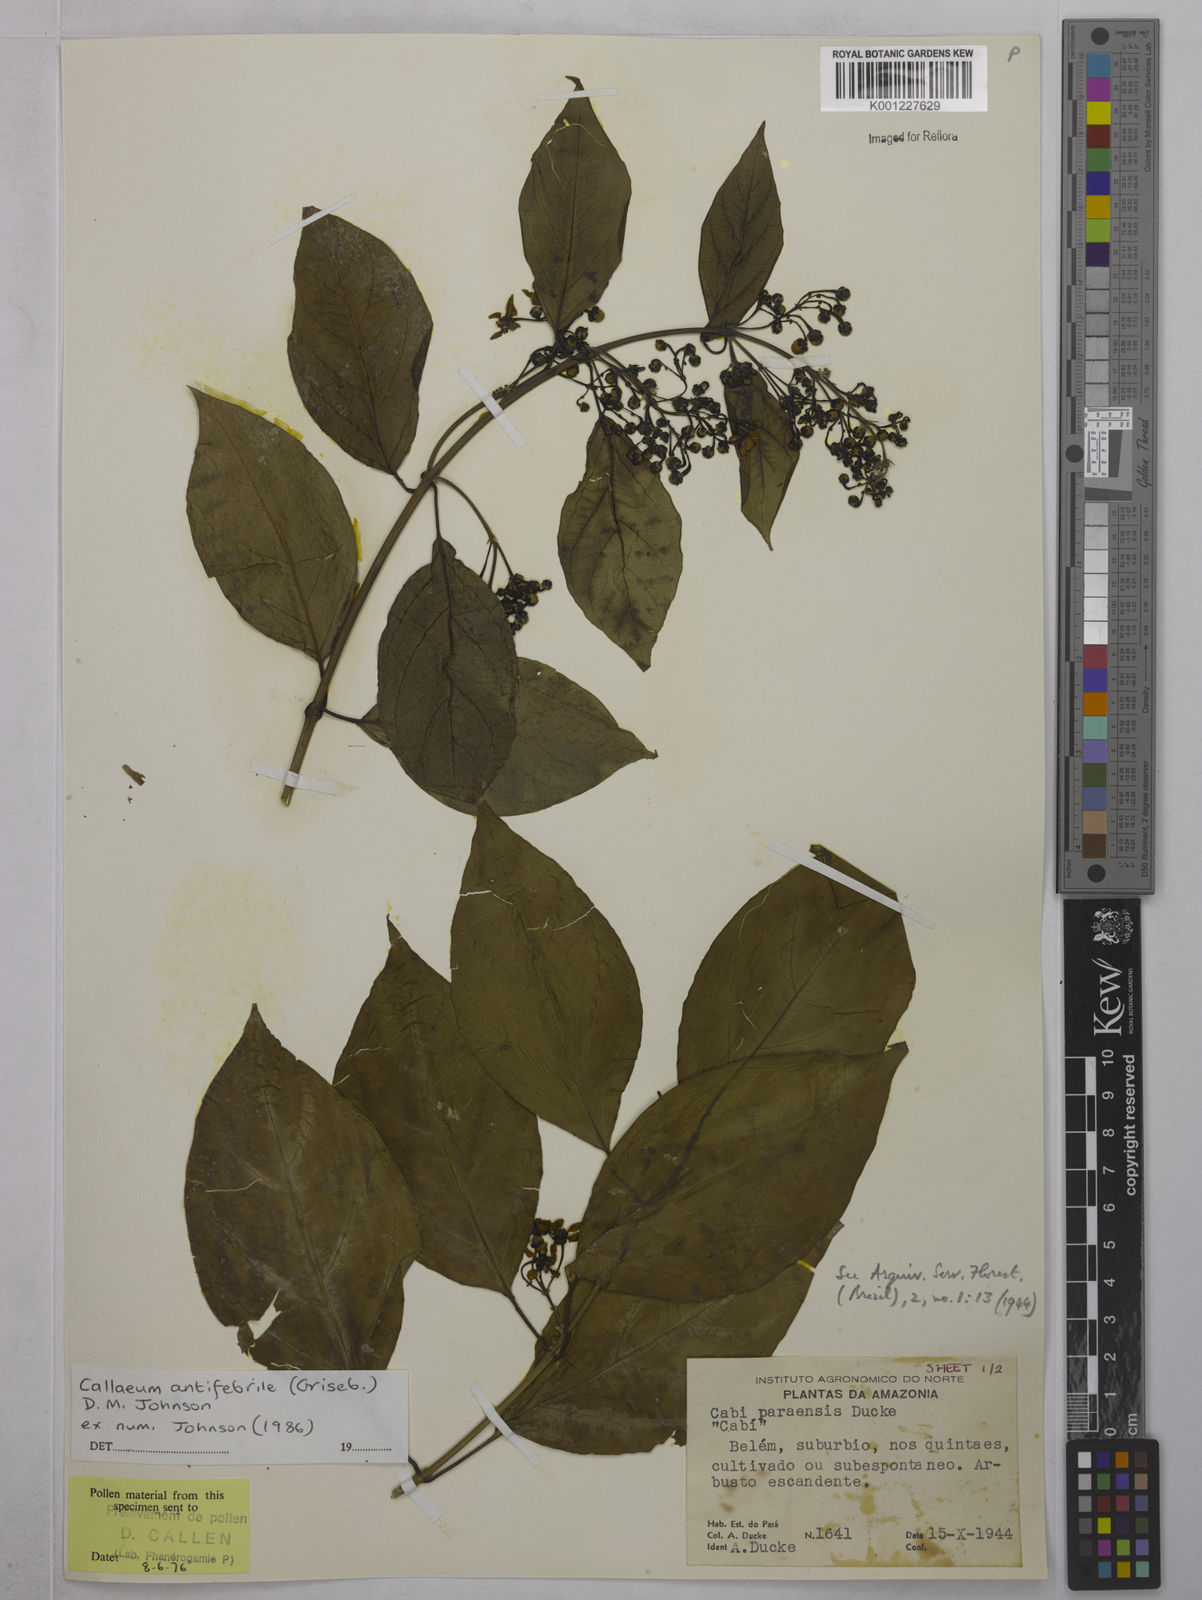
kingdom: Plantae
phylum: Tracheophyta
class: Magnoliopsida
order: Malpighiales
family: Malpighiaceae
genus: Callaeum
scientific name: Callaeum antifebrile
